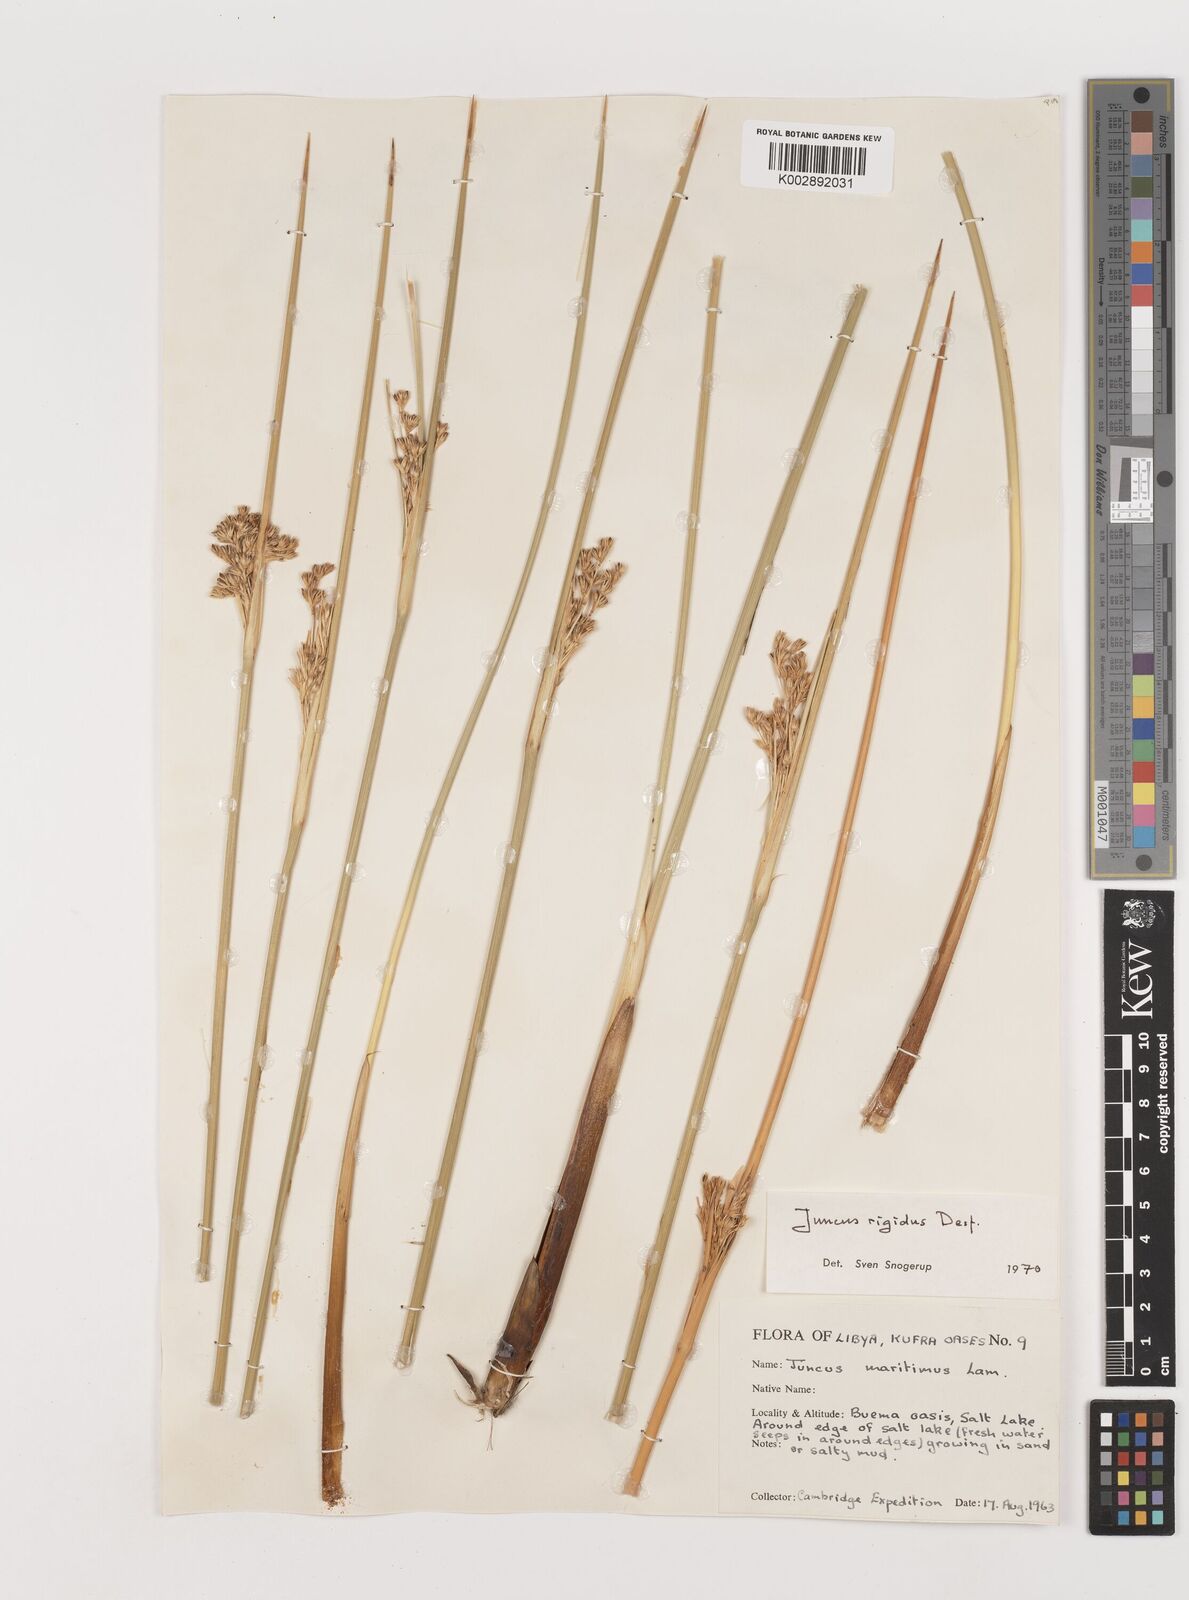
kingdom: Plantae
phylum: Tracheophyta
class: Liliopsida
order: Poales
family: Juncaceae
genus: Juncus
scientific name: Juncus rigidus
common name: Hard sea rush
